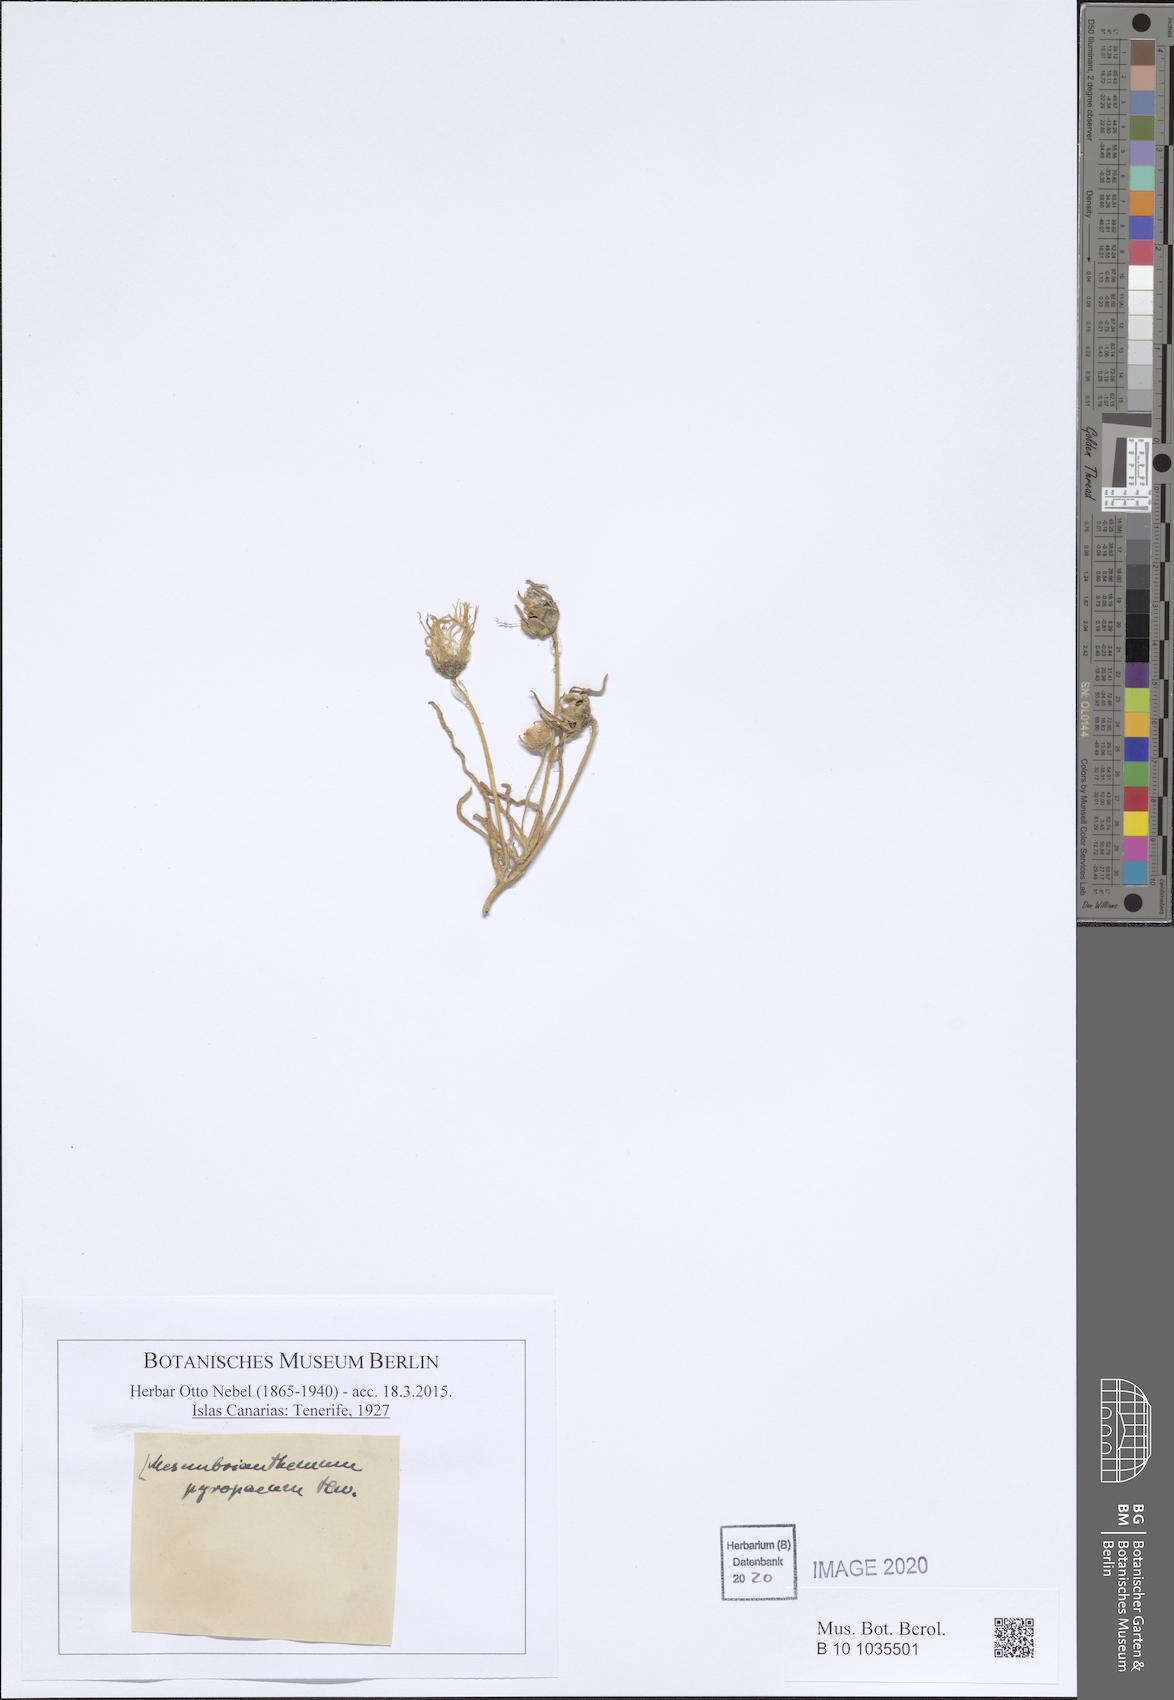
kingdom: Plantae
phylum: Tracheophyta
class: Magnoliopsida
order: Caryophyllales
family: Aizoaceae
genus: Cleretum
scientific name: Cleretum clavatum
